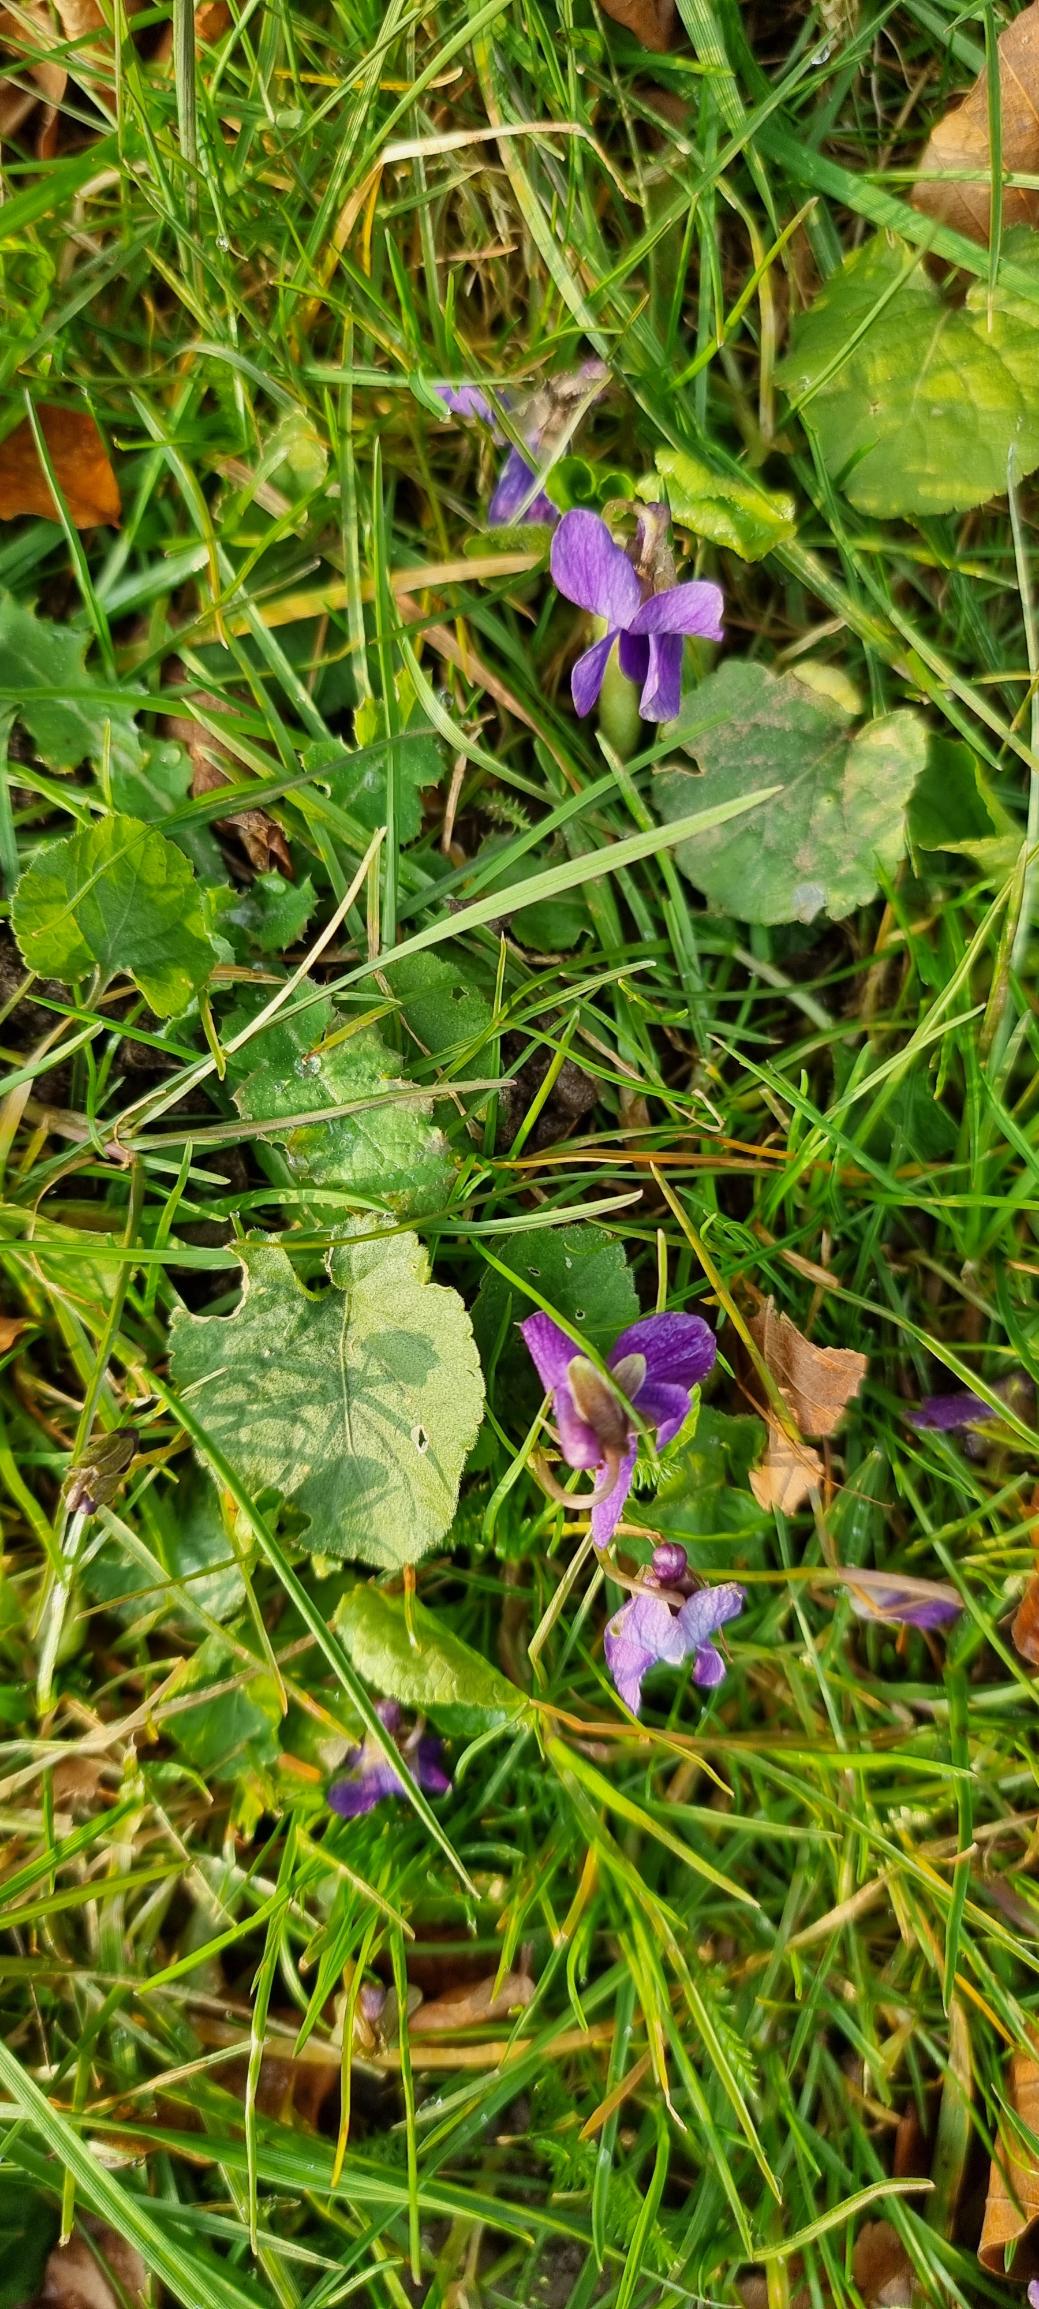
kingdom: Plantae
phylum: Tracheophyta
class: Magnoliopsida
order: Malpighiales
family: Violaceae
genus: Viola
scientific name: Viola odorata
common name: Marts-viol
